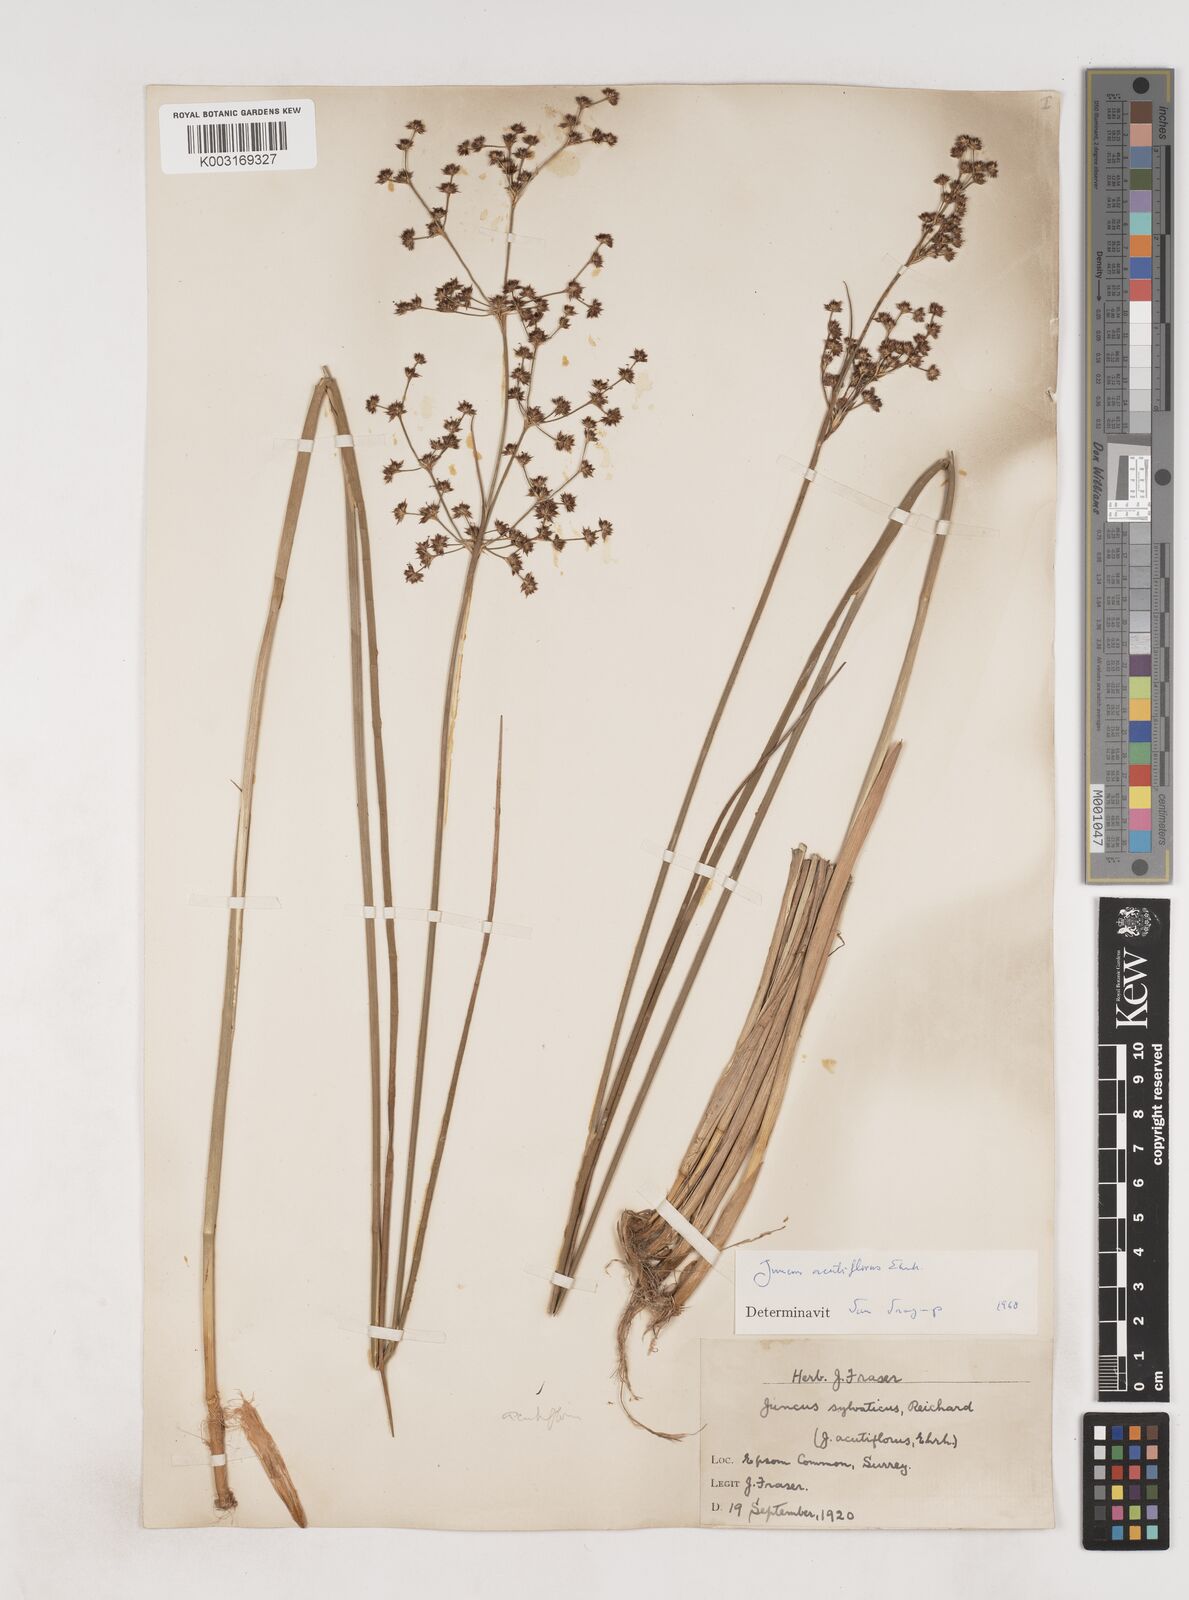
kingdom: Plantae
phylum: Tracheophyta
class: Liliopsida
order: Poales
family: Juncaceae
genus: Juncus
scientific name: Juncus acutiflorus
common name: Sharp-flowered rush
